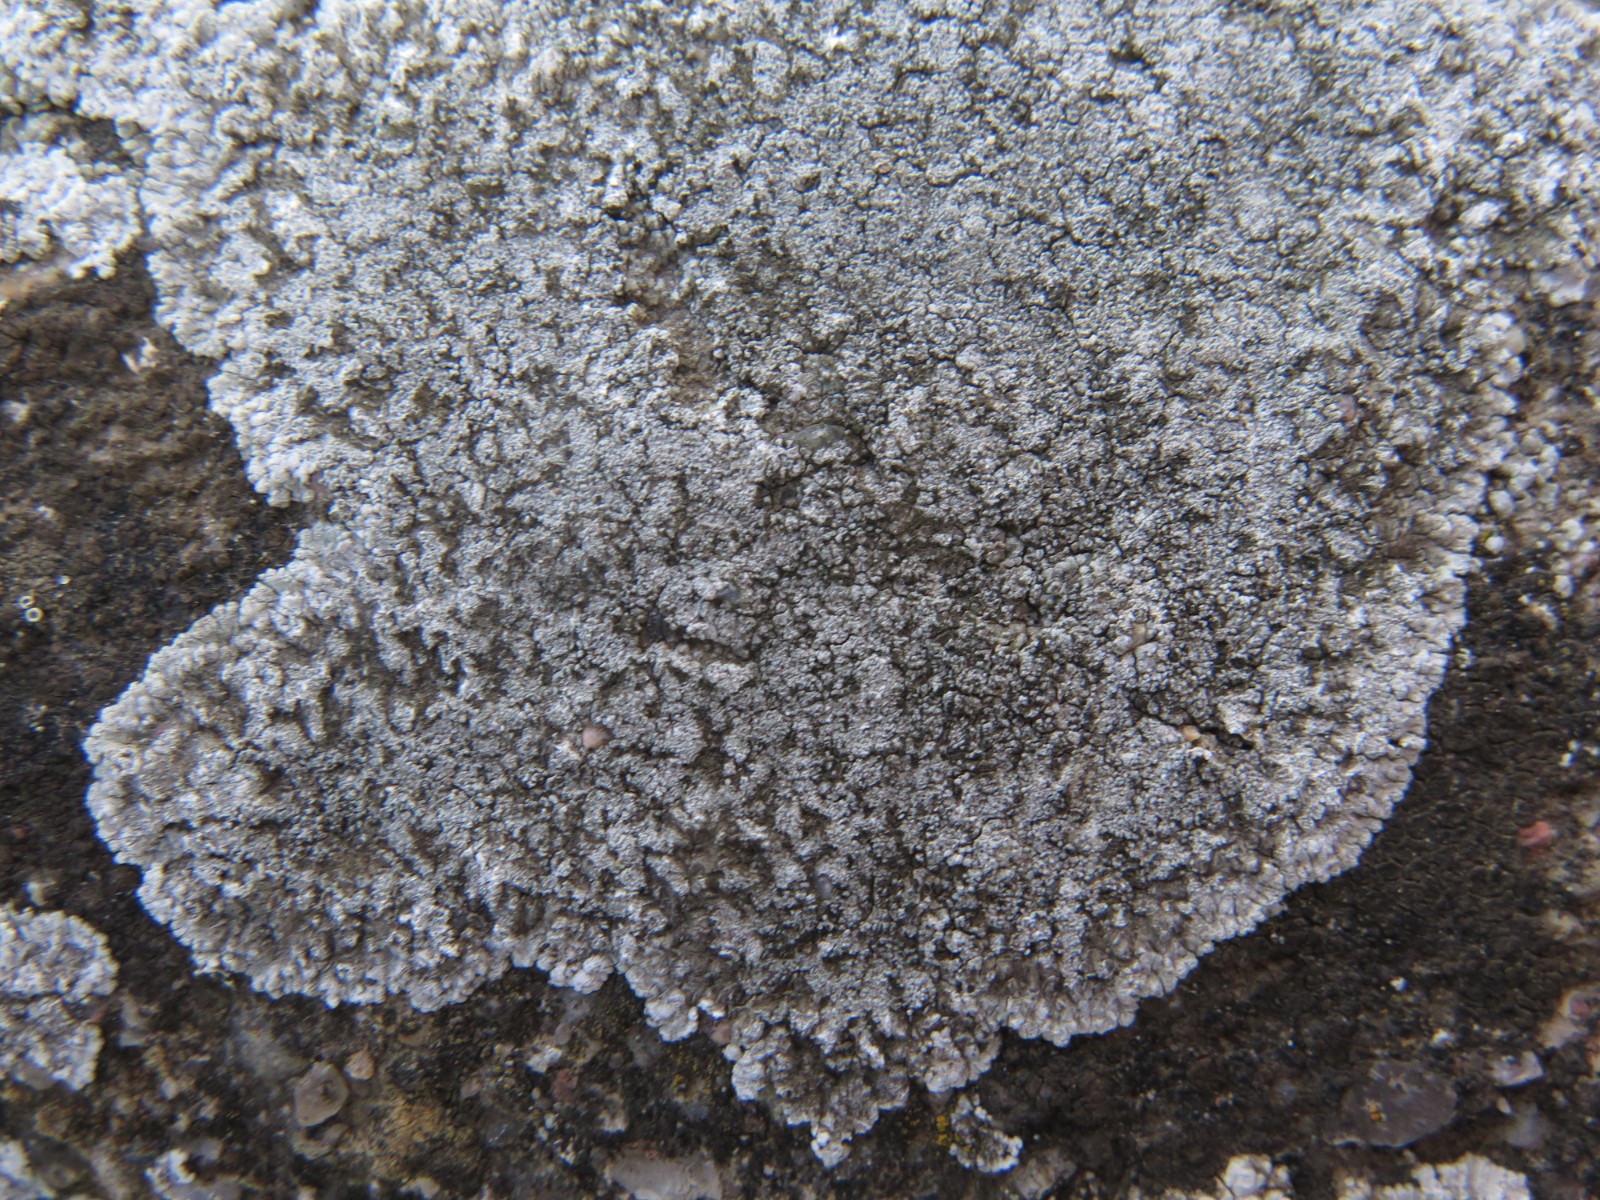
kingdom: Fungi
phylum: Ascomycota
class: Lecanoromycetes
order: Teloschistales
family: Teloschistaceae
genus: Kuettlingeria
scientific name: Kuettlingeria teicholyta
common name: grå orangelav
